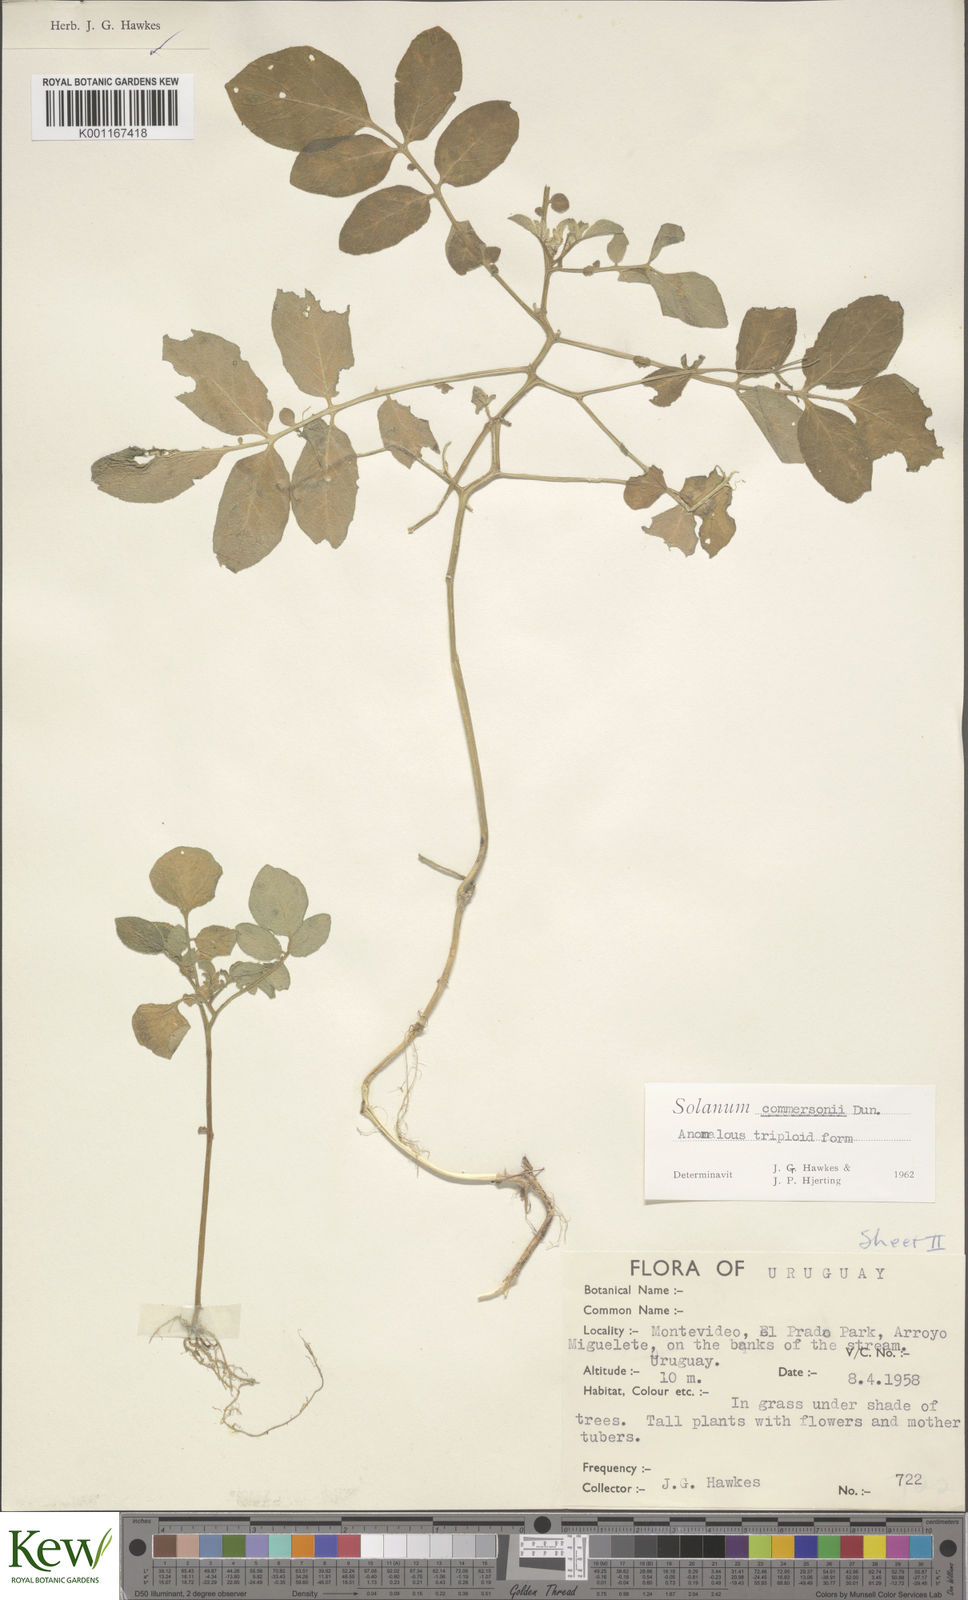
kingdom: Plantae
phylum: Tracheophyta
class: Magnoliopsida
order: Solanales
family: Solanaceae
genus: Solanum
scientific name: Solanum commersonii
